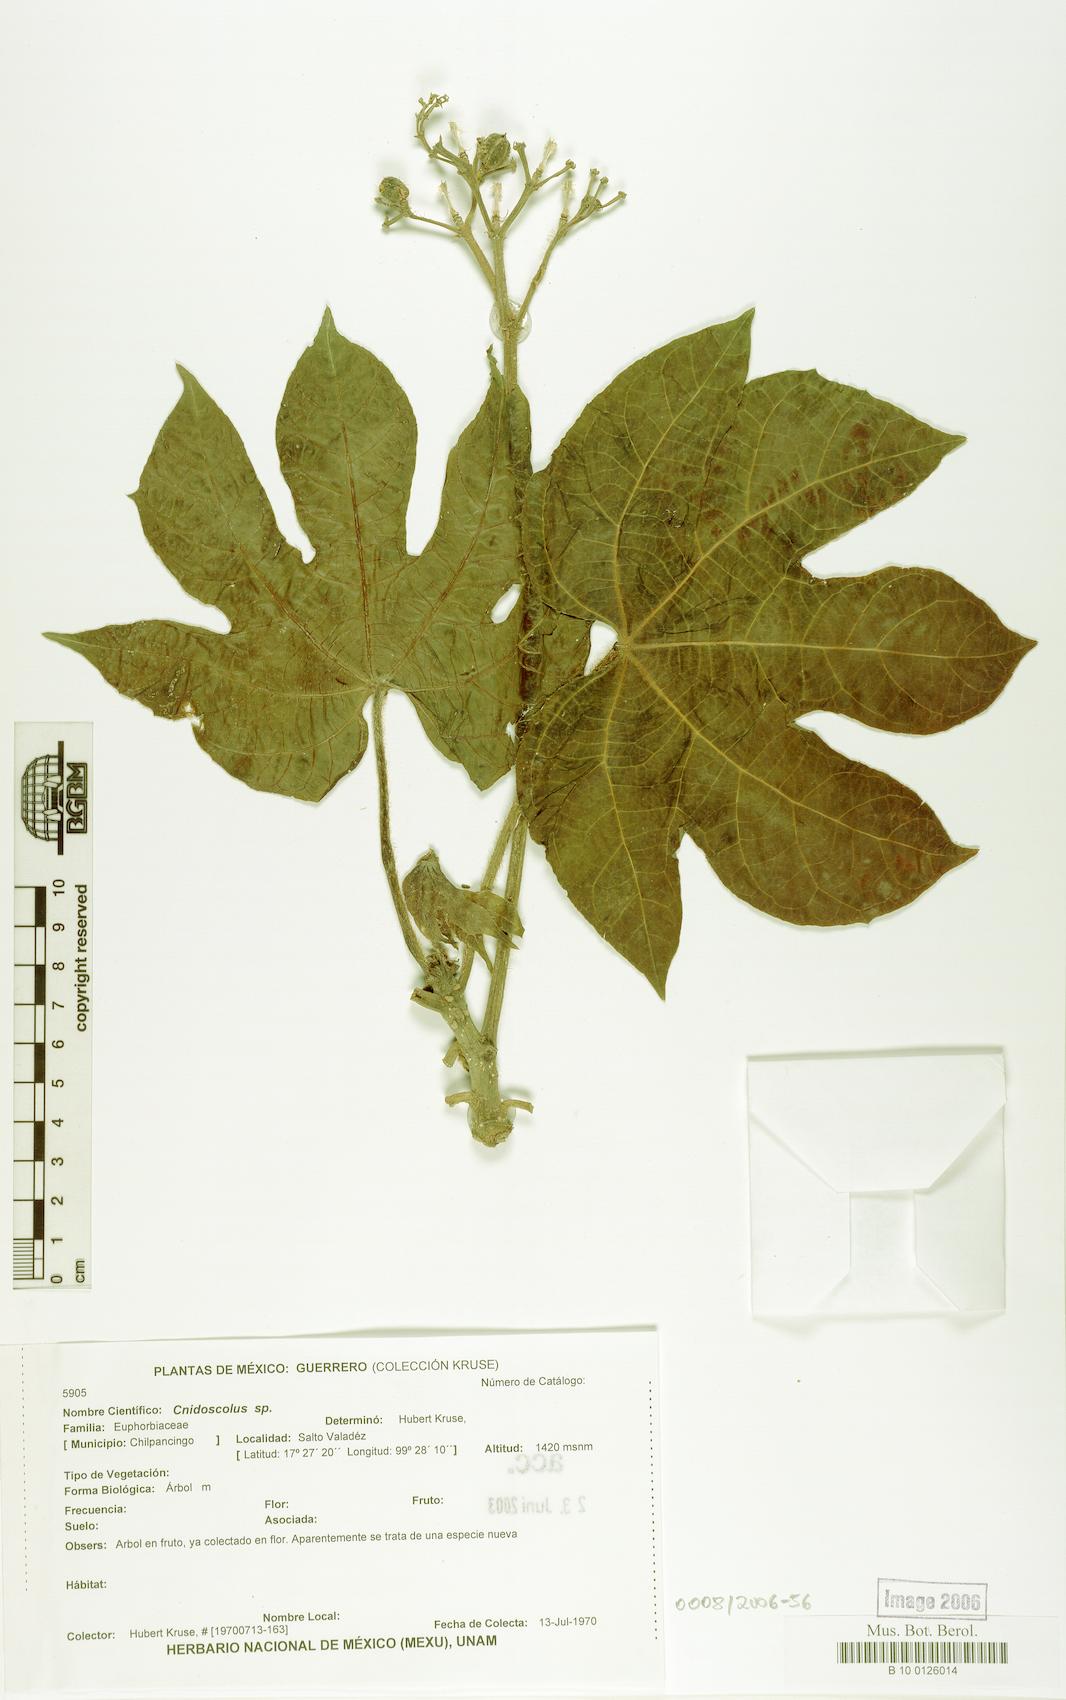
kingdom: Plantae
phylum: Tracheophyta
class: Magnoliopsida
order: Malpighiales
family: Euphorbiaceae
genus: Cnidoscolus
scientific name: Cnidoscolus multilobus
